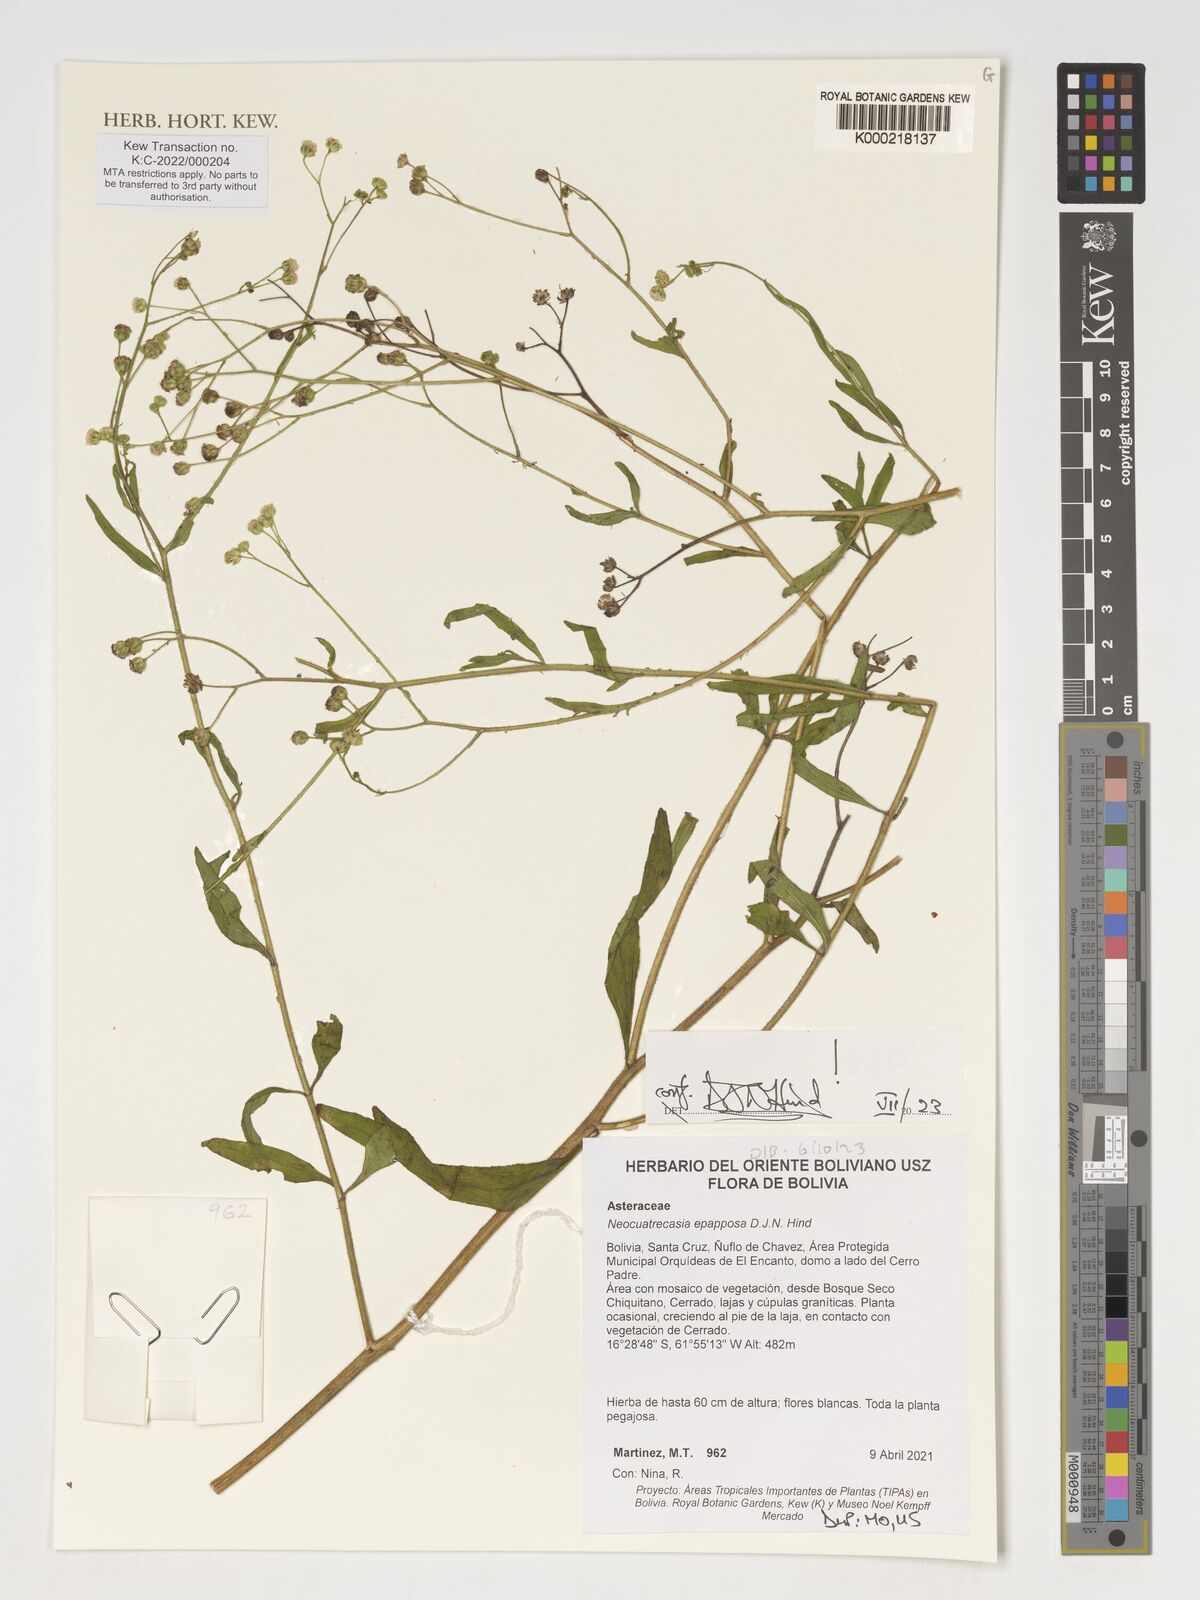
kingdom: Plantae
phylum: Tracheophyta
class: Magnoliopsida
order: Asterales
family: Asteraceae
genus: Neocuatrecasia
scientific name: Neocuatrecasia epapposa
